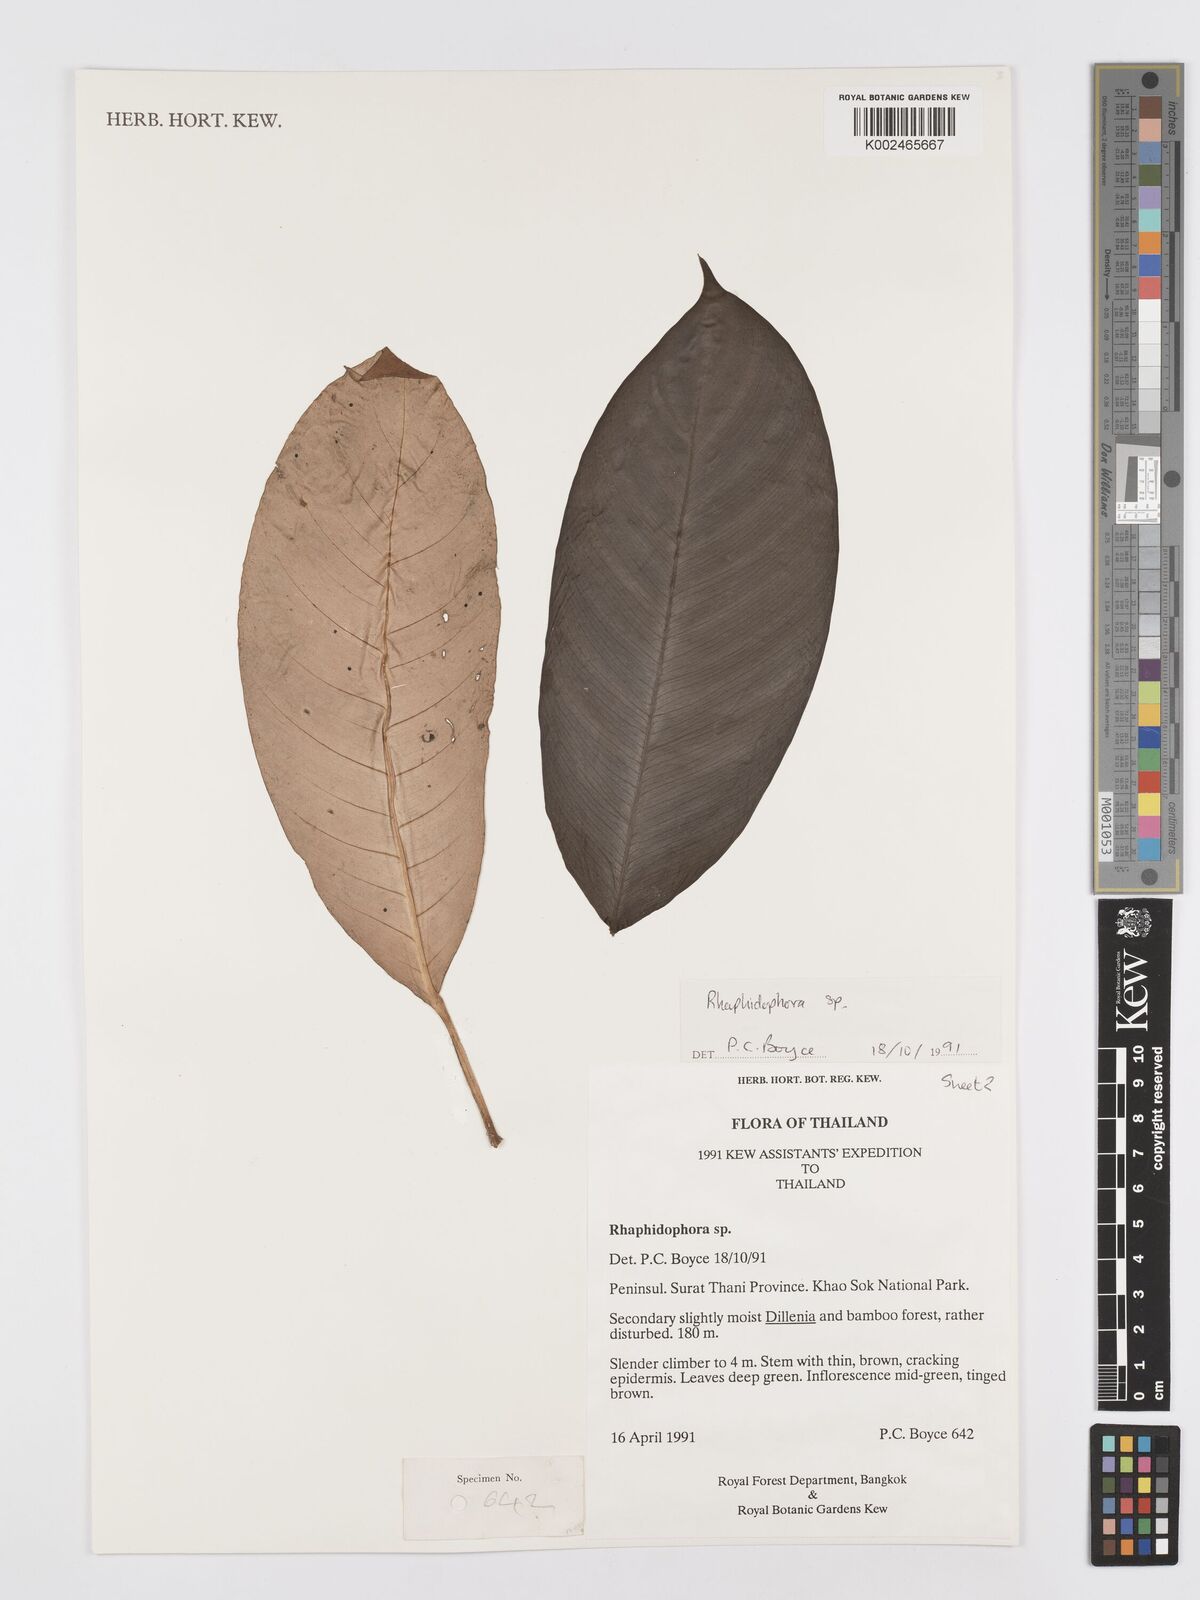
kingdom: Plantae
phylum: Tracheophyta
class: Liliopsida
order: Alismatales
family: Araceae
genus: Rhaphidophora
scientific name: Rhaphidophora lobbii
